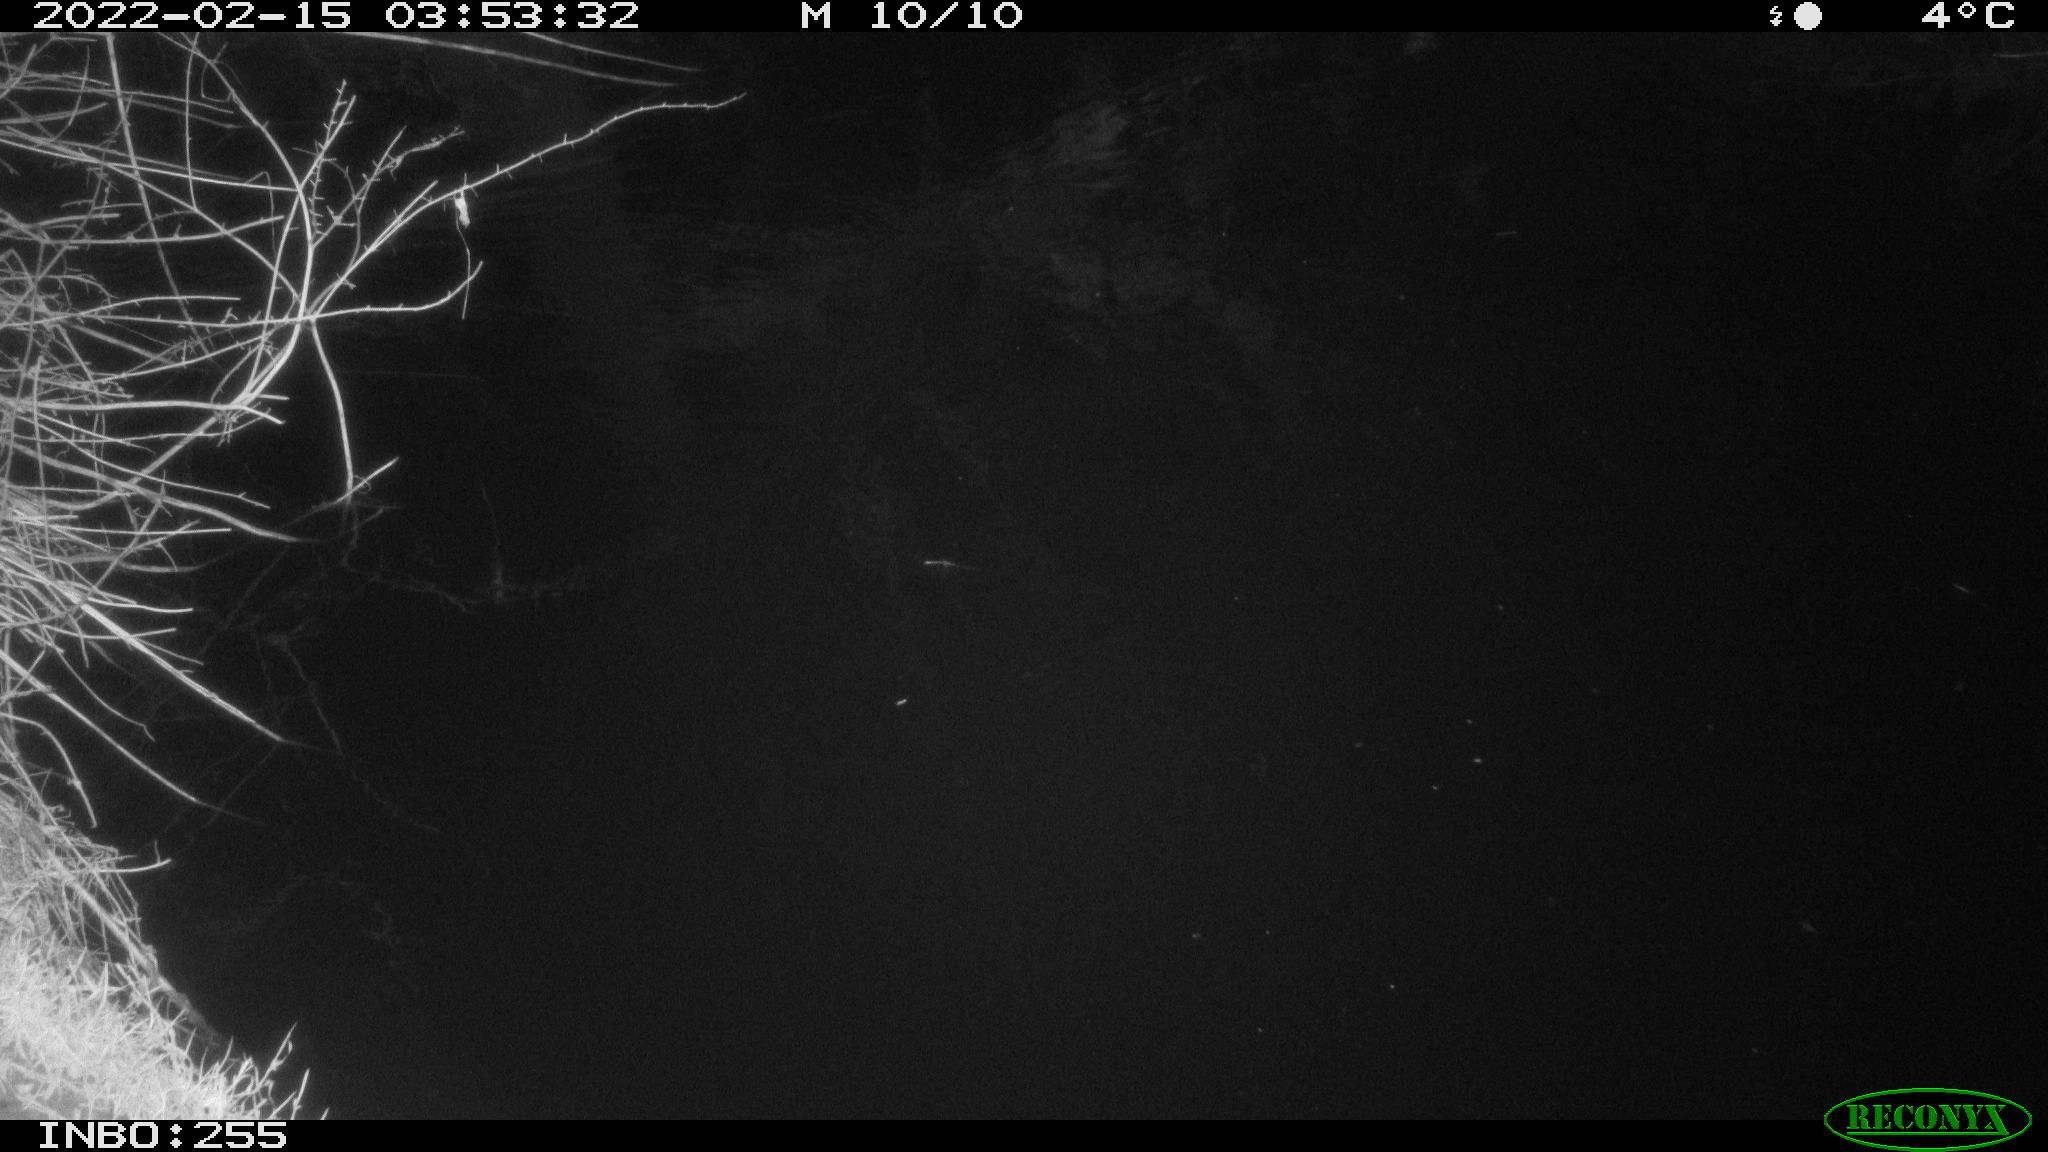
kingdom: Animalia
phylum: Chordata
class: Mammalia
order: Rodentia
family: Muridae
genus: Rattus
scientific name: Rattus norvegicus
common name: Brown rat
